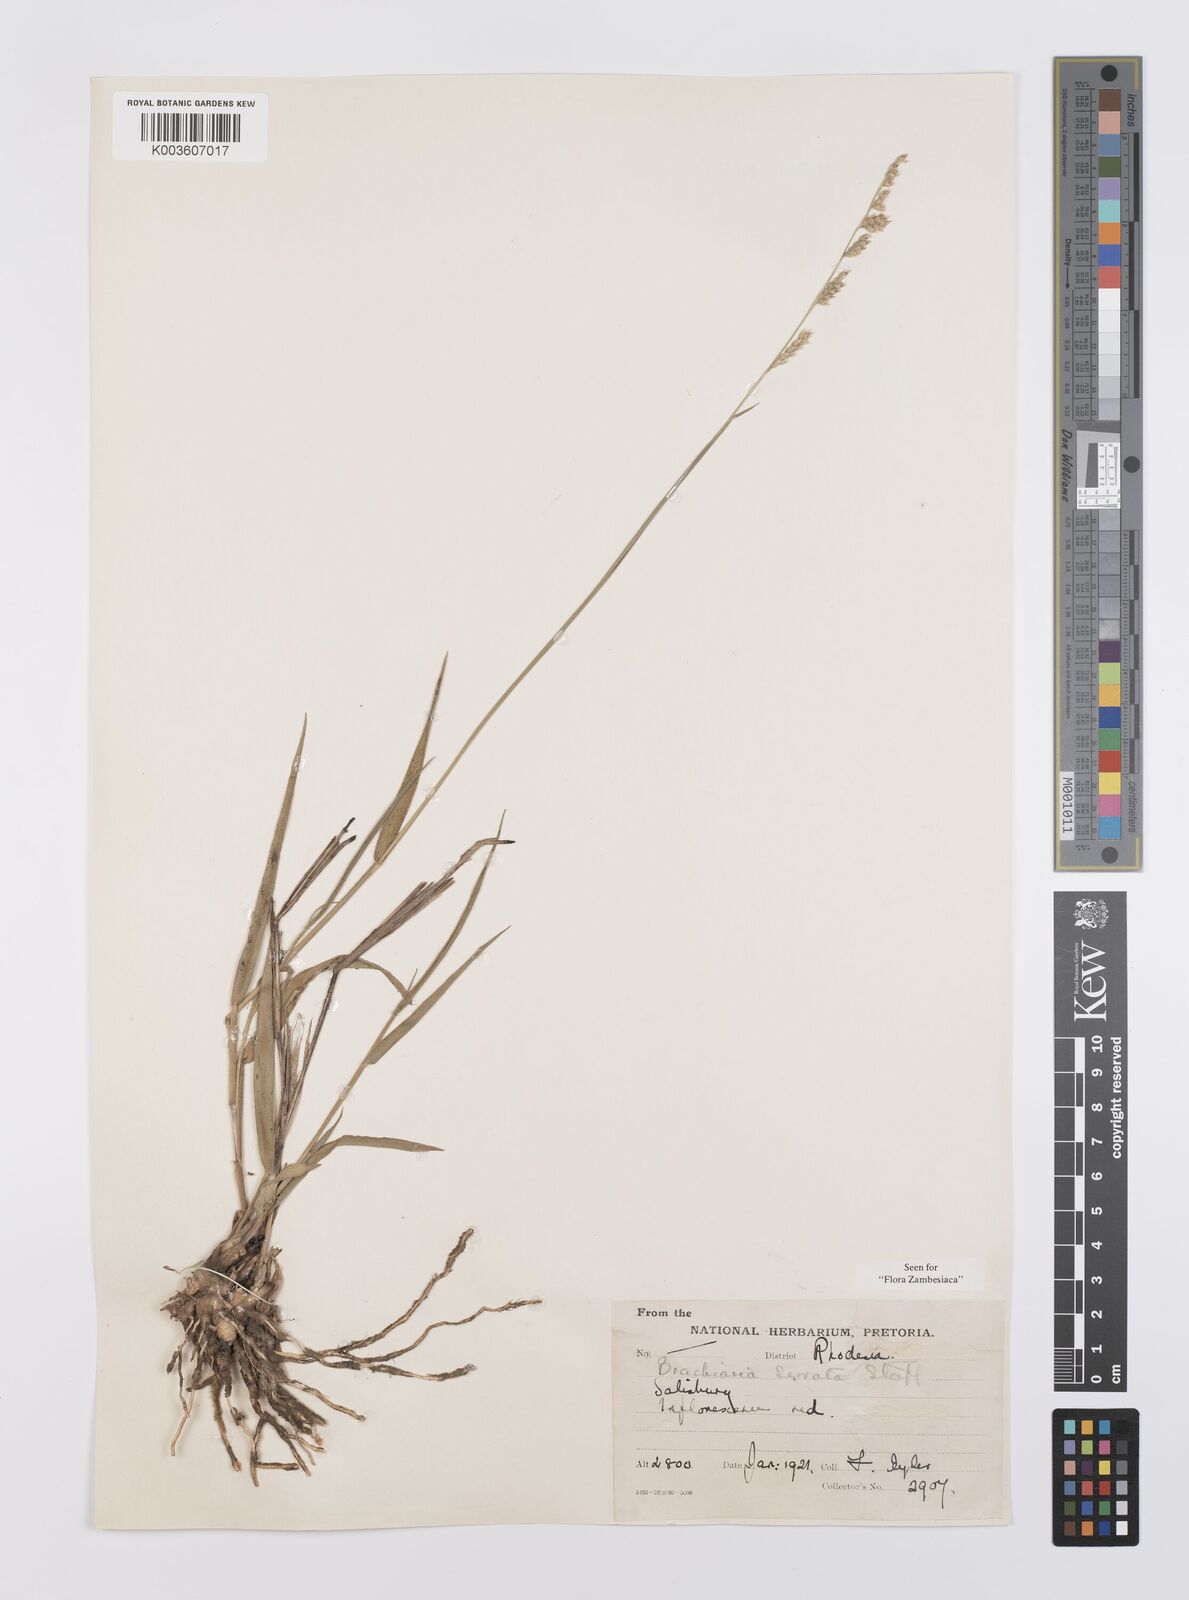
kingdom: Plantae
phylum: Tracheophyta
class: Liliopsida
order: Poales
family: Poaceae
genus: Urochloa
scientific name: Urochloa serrata
